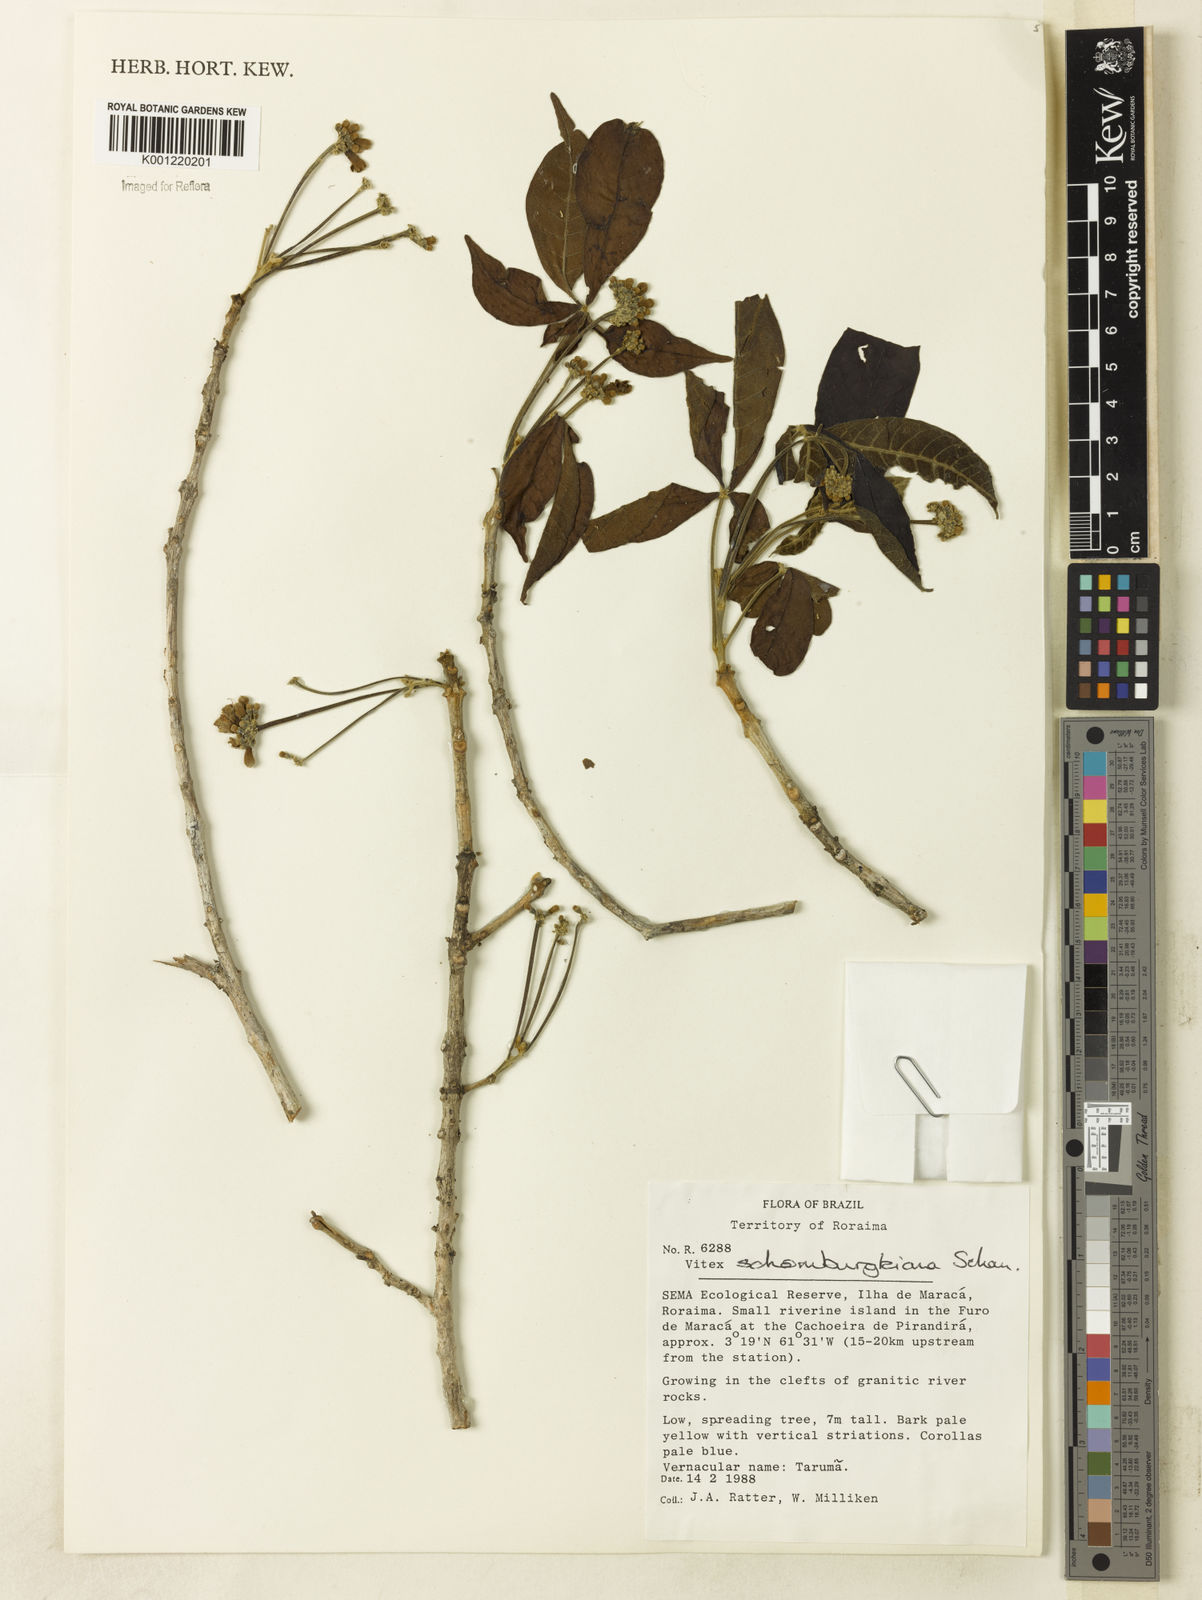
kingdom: Plantae
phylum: Tracheophyta
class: Magnoliopsida
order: Lamiales
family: Lamiaceae
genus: Vitex
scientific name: Vitex schomburgkiana
